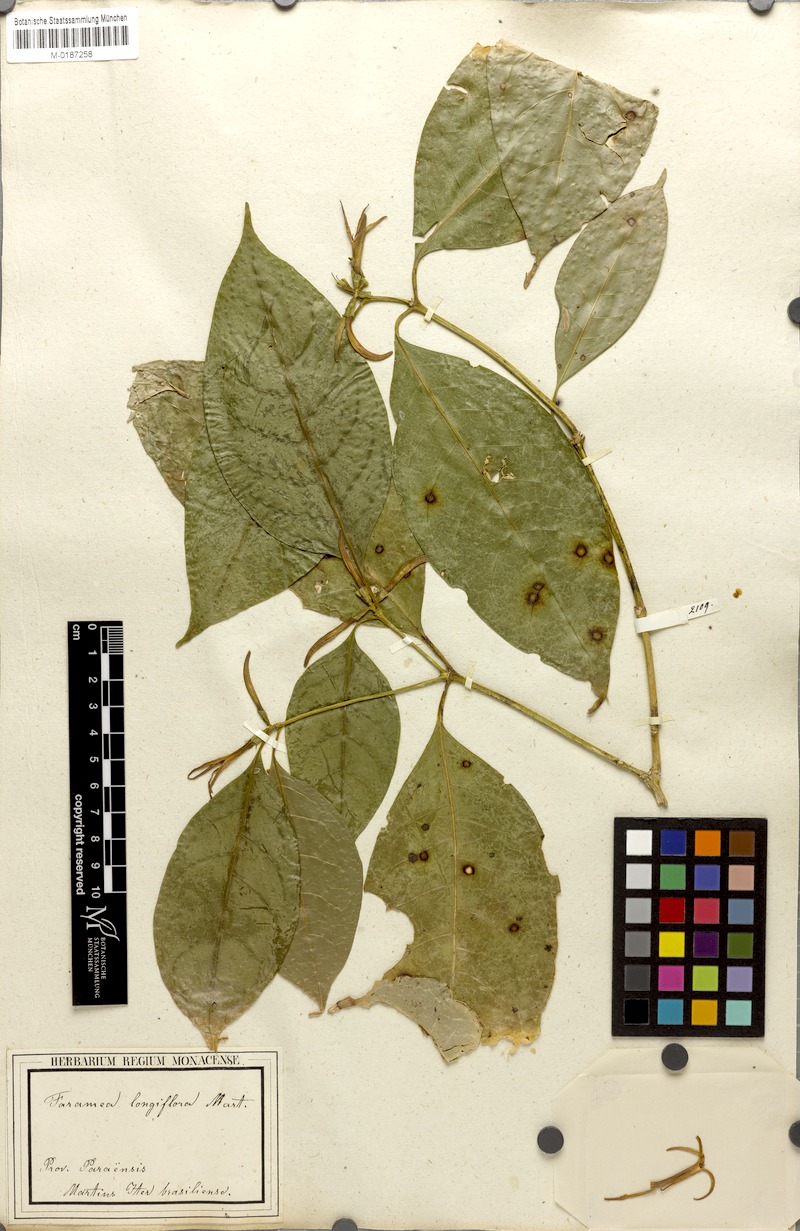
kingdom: Plantae
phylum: Tracheophyta
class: Magnoliopsida
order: Gentianales
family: Rubiaceae
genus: Coussarea
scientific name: Coussarea longiflora
